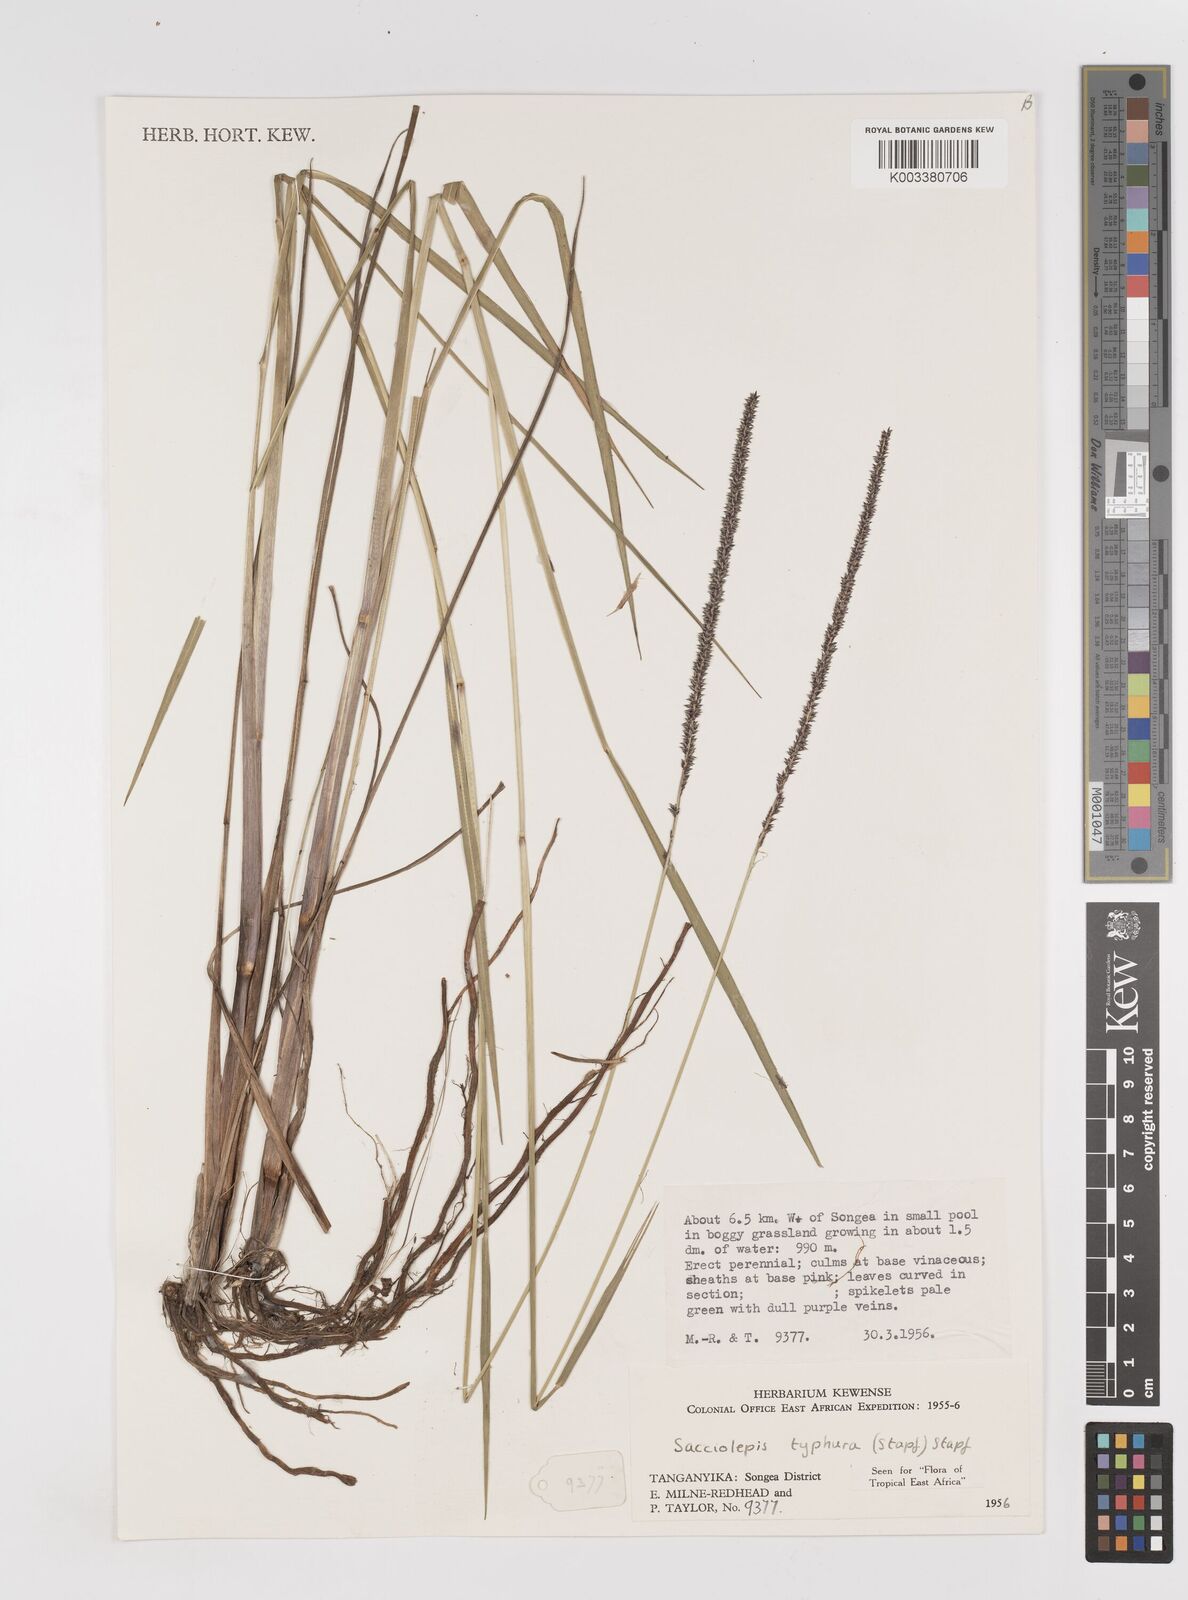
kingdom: Plantae
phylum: Tracheophyta
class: Liliopsida
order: Poales
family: Poaceae
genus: Sacciolepis
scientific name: Sacciolepis typhura
